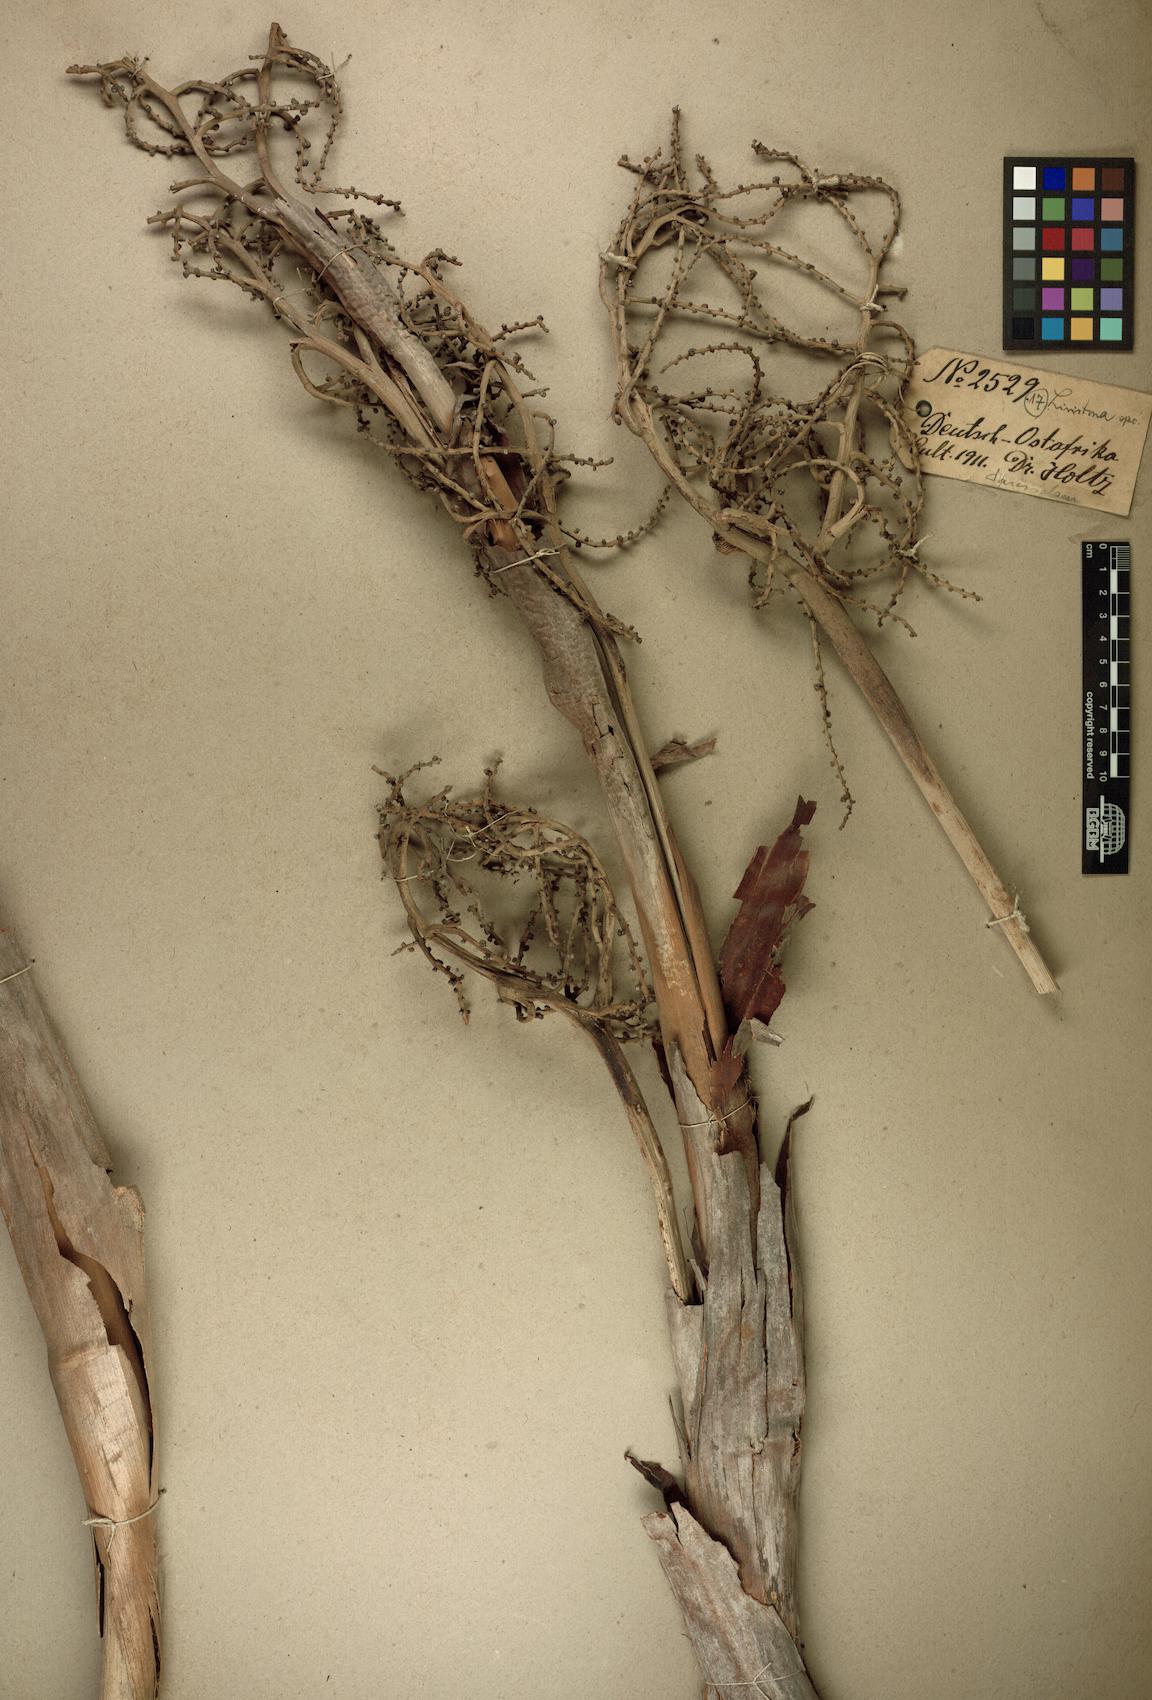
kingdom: Plantae
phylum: Tracheophyta
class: Liliopsida
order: Arecales
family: Arecaceae
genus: Livistona
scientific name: Livistona
